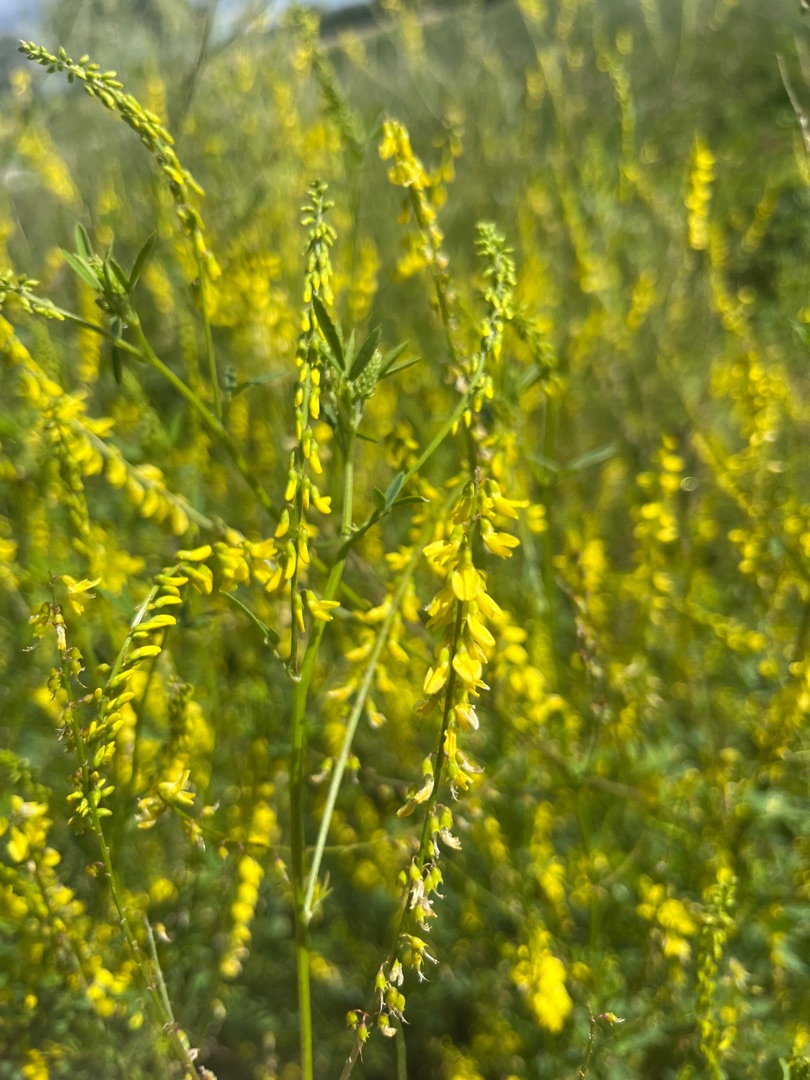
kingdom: Plantae
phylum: Tracheophyta
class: Magnoliopsida
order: Fabales
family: Fabaceae
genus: Melilotus
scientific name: Melilotus
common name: Stenkløverslægten
